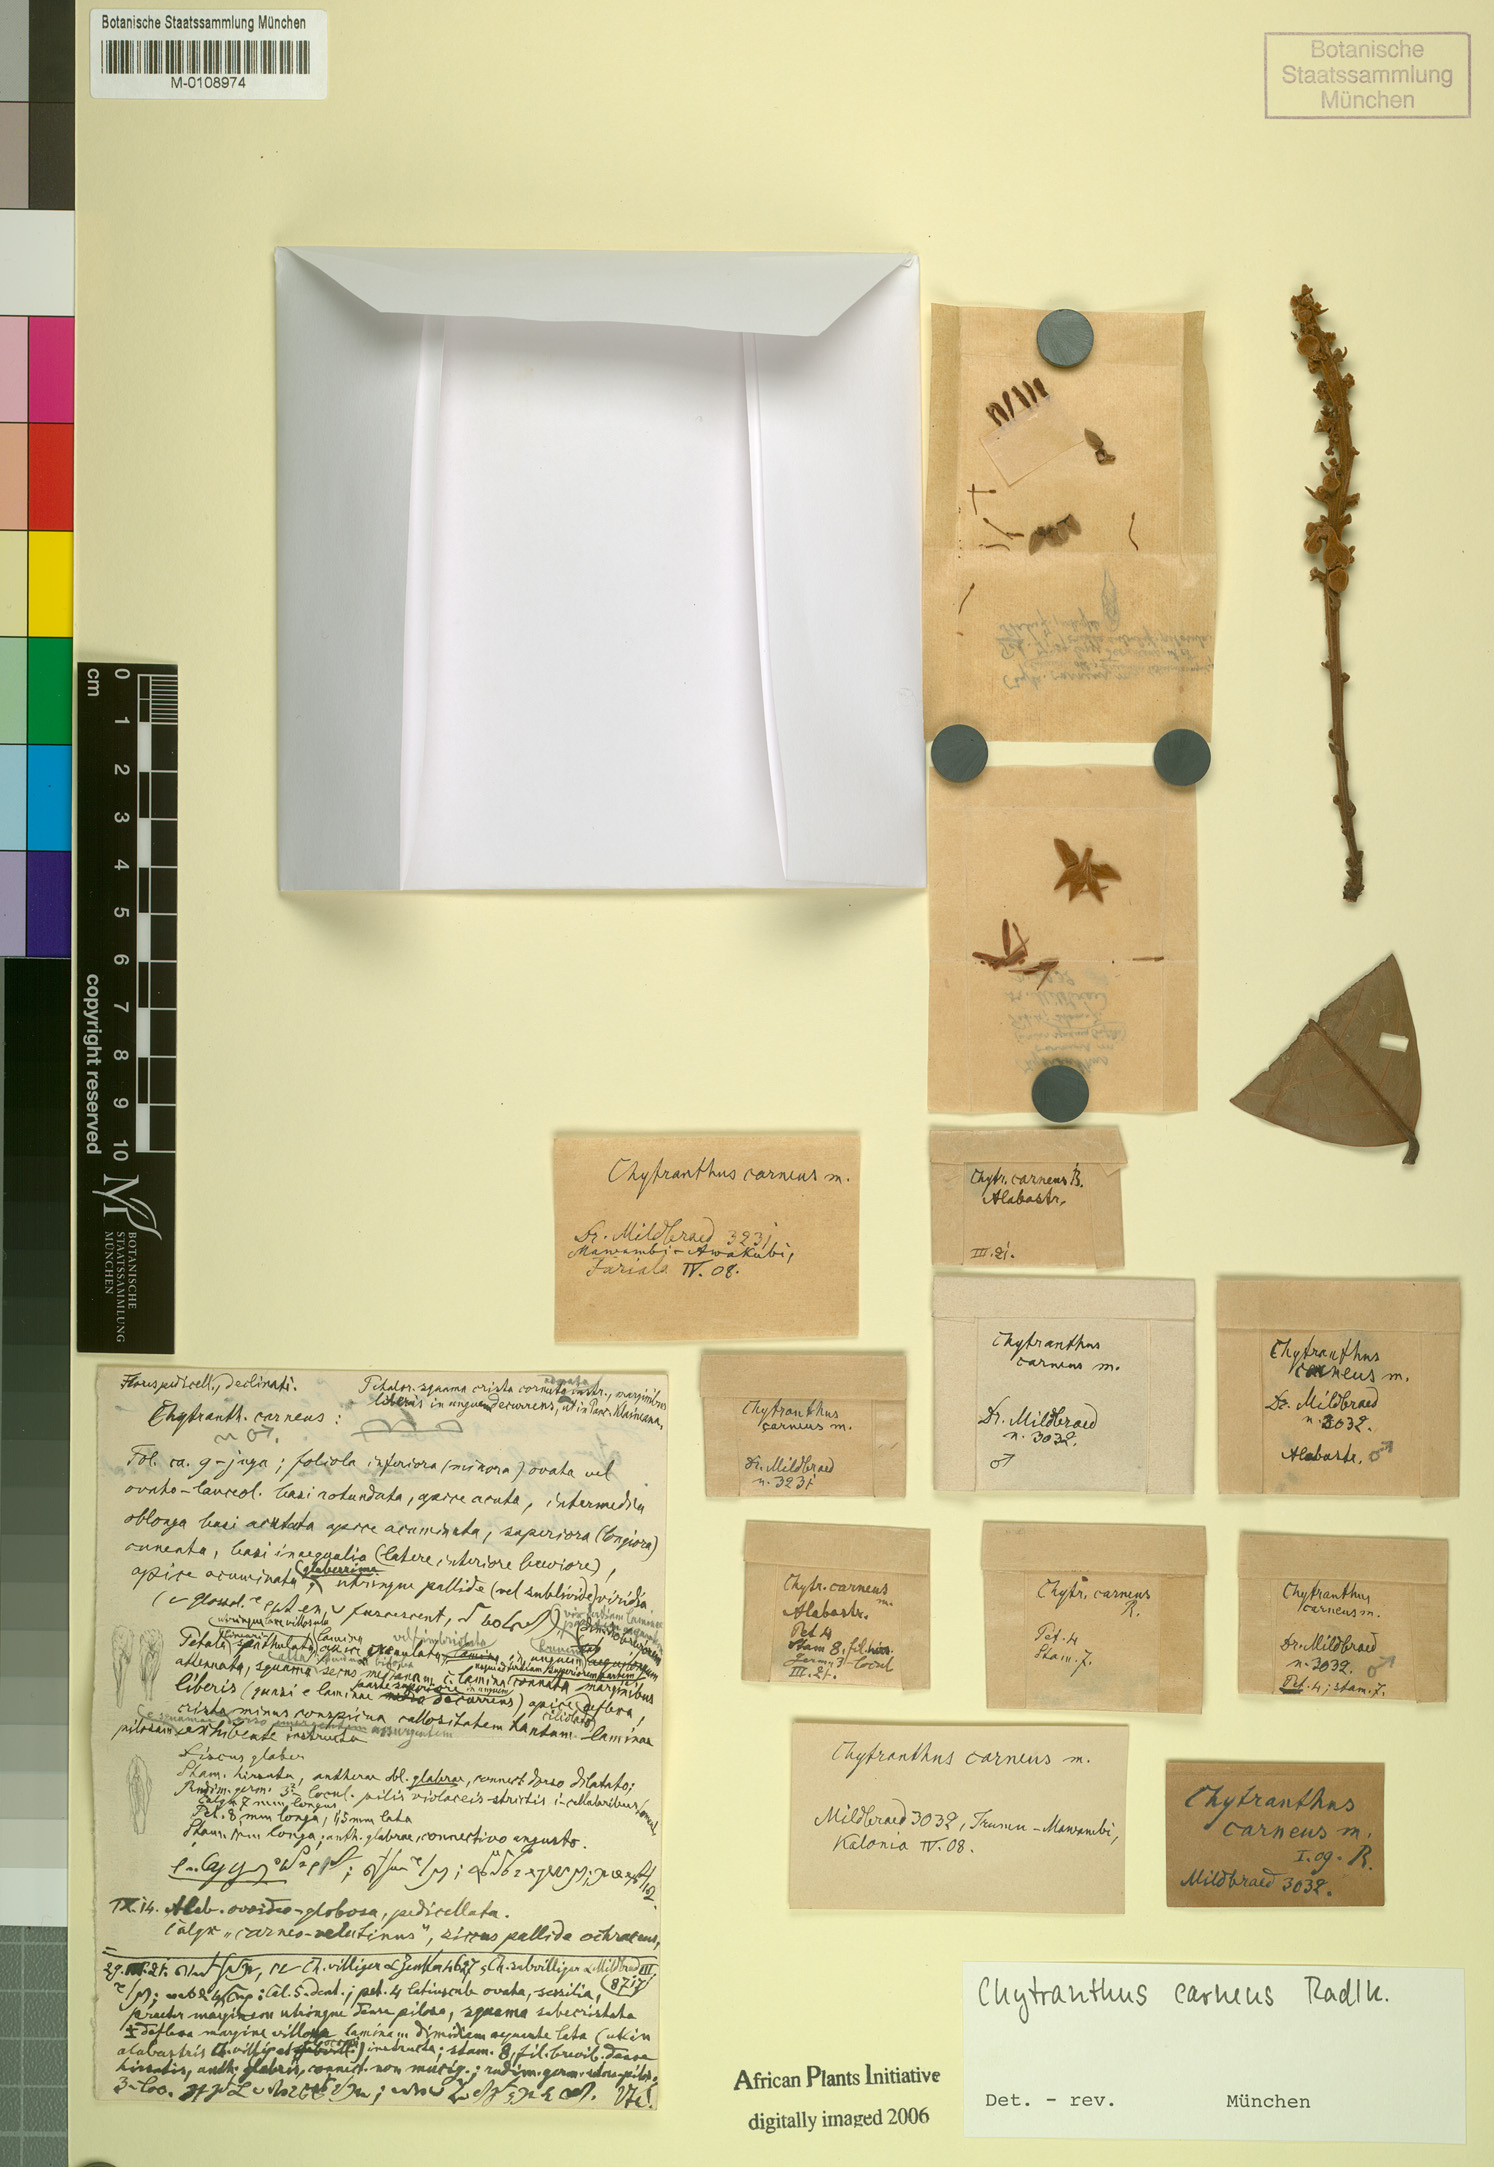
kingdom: Plantae
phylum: Tracheophyta
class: Magnoliopsida
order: Sapindales
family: Sapindaceae
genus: Chytranthus
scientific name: Chytranthus carneus
